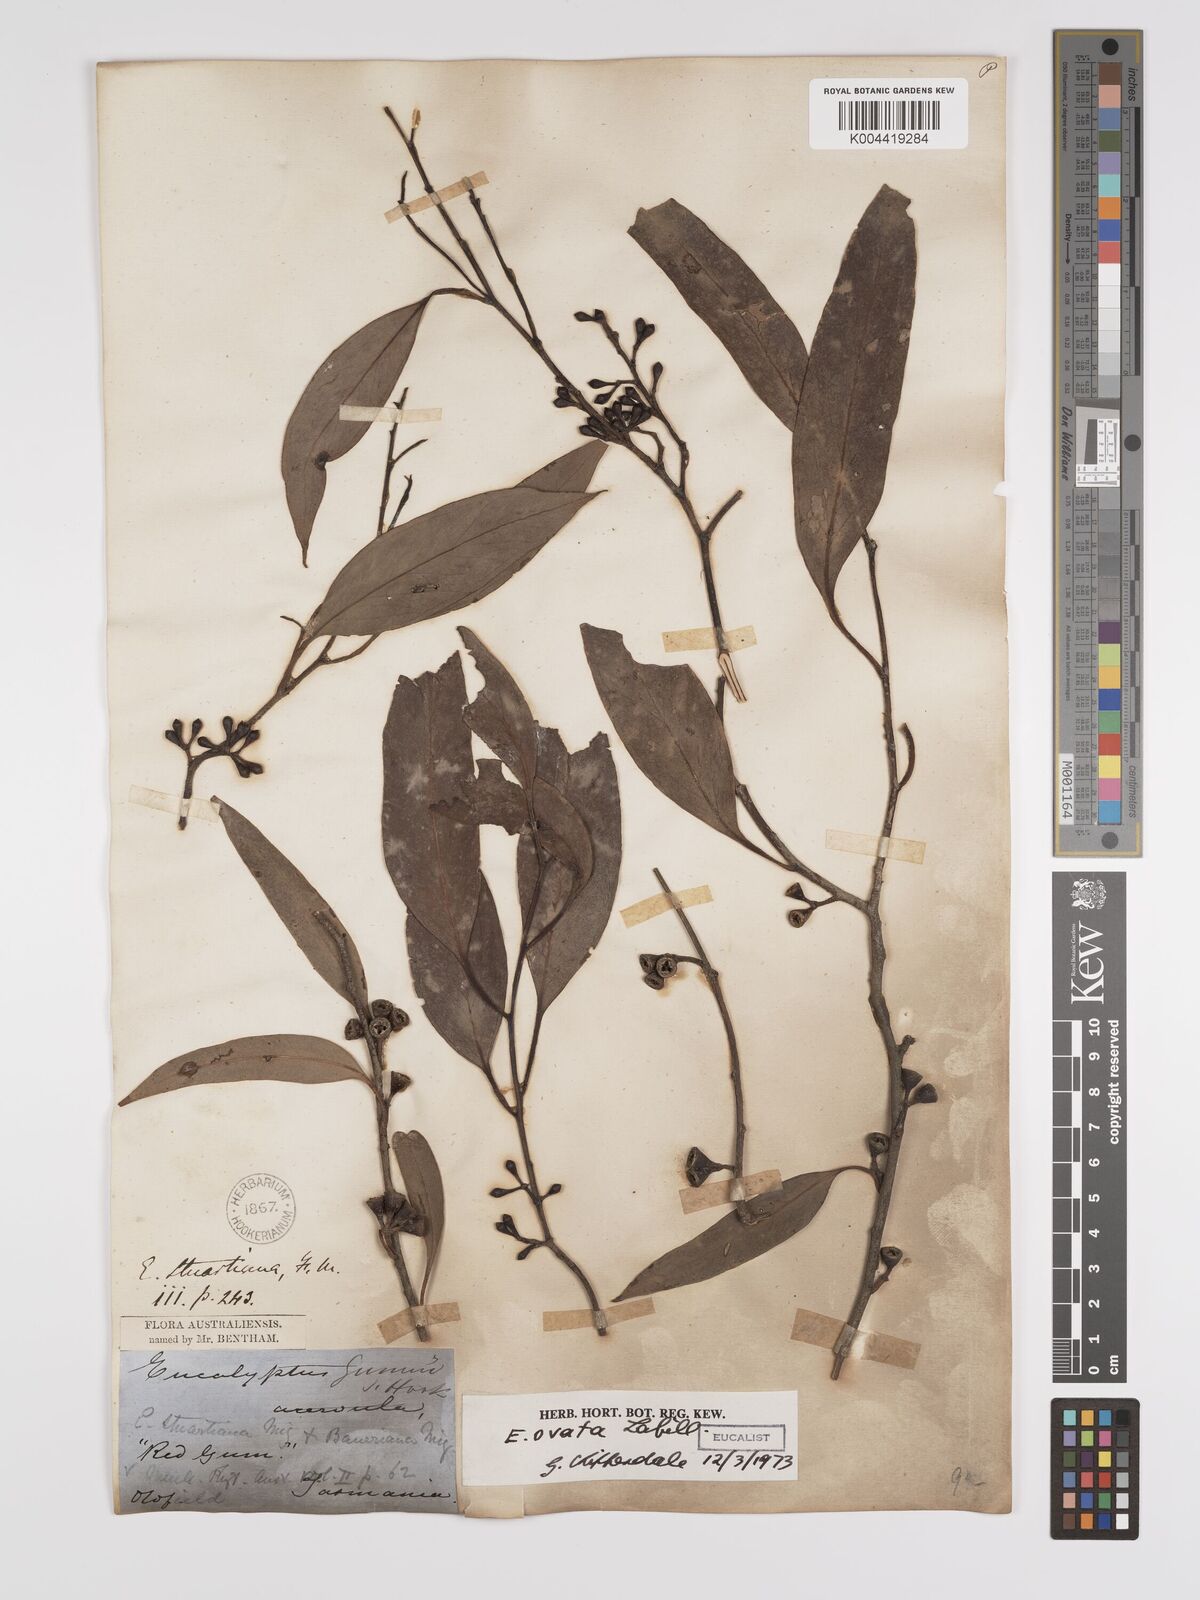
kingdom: Plantae
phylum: Tracheophyta
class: Magnoliopsida
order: Myrtales
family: Myrtaceae
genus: Eucalyptus
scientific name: Eucalyptus ovata
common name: Black-gum
